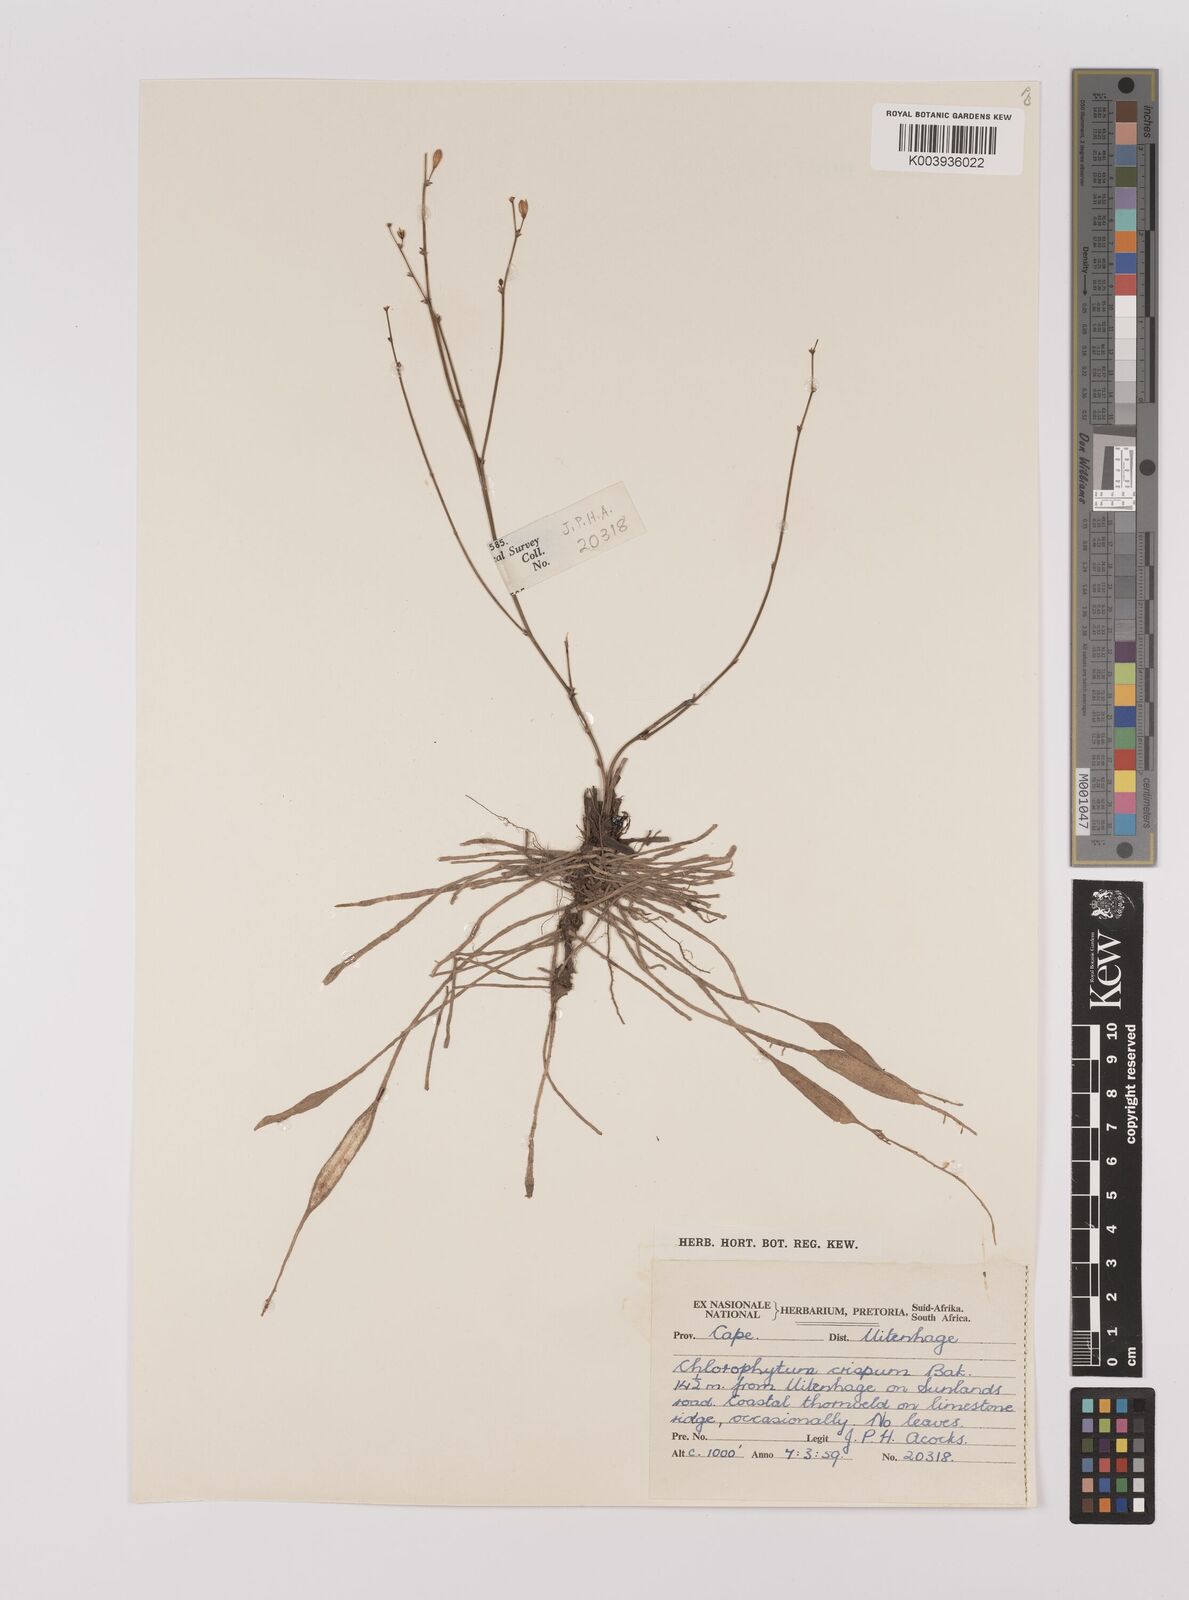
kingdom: Plantae
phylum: Tracheophyta
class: Liliopsida
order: Asparagales
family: Asparagaceae
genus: Chlorophytum
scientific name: Chlorophytum crispum
